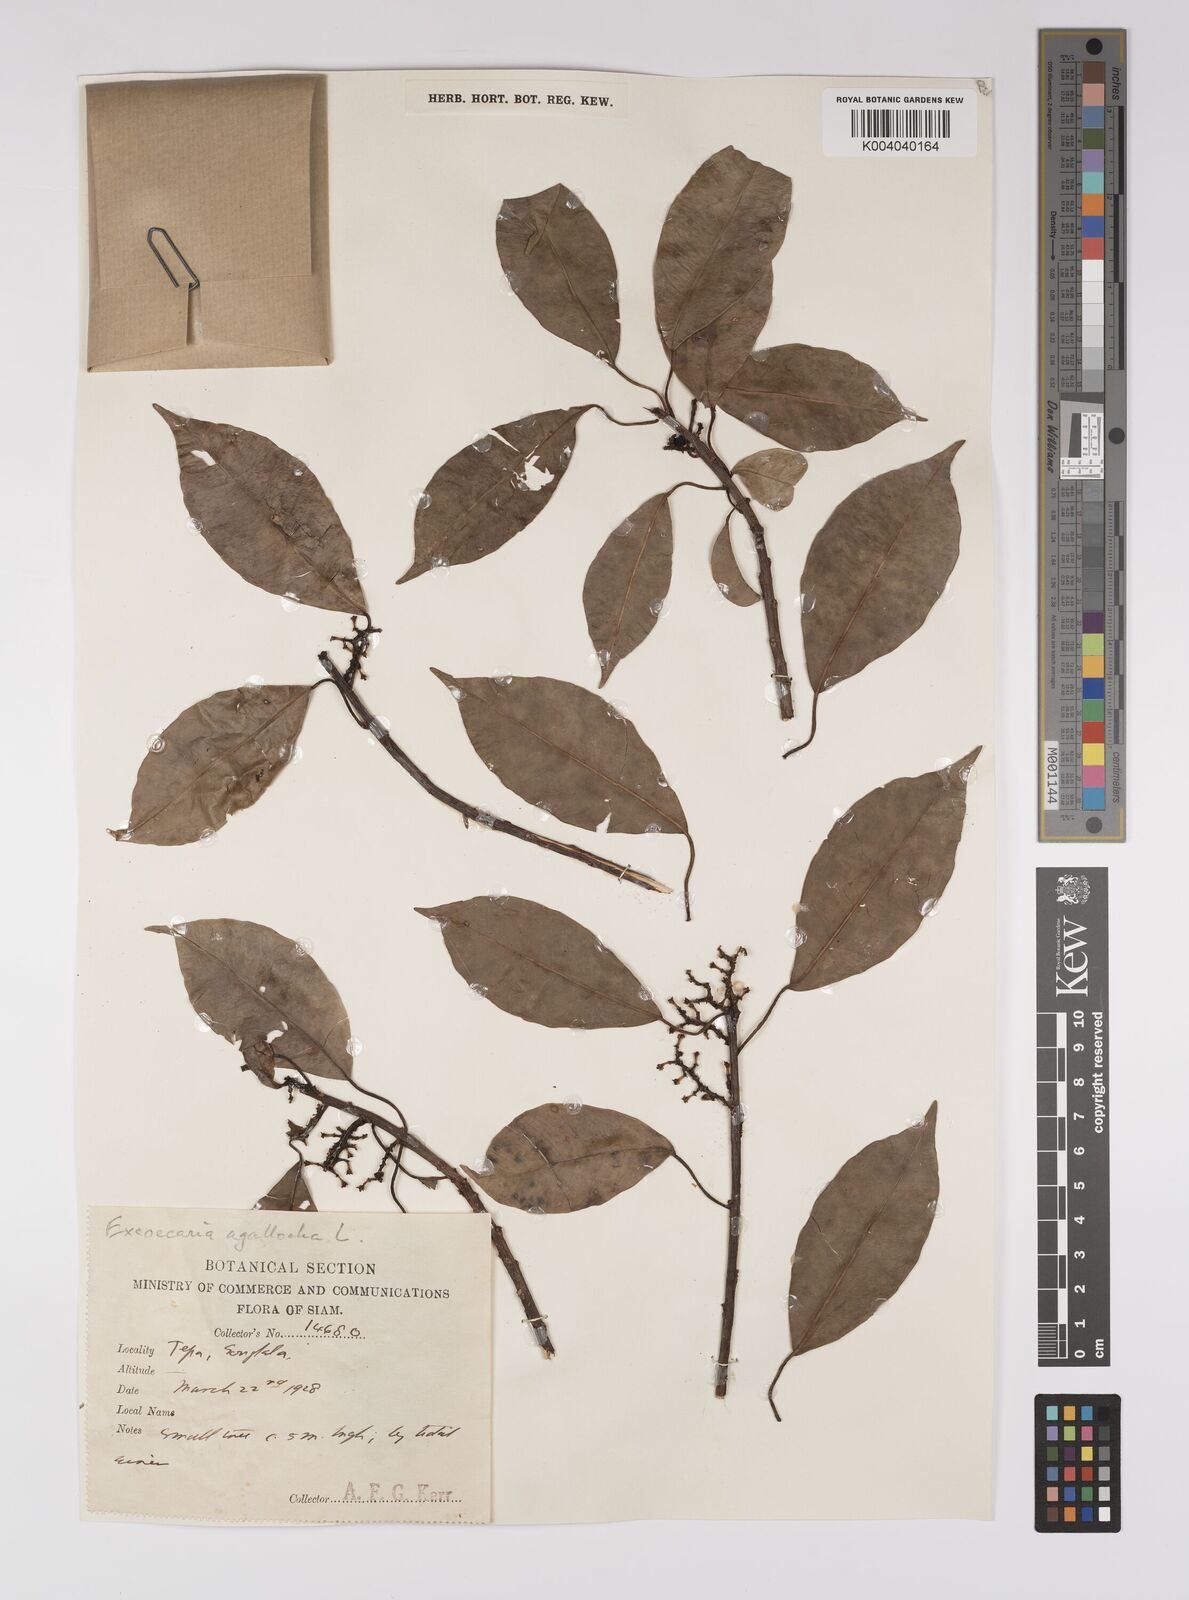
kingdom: Plantae
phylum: Tracheophyta
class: Magnoliopsida
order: Malpighiales
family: Euphorbiaceae
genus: Excoecaria
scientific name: Excoecaria agallocha
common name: River poisontree
